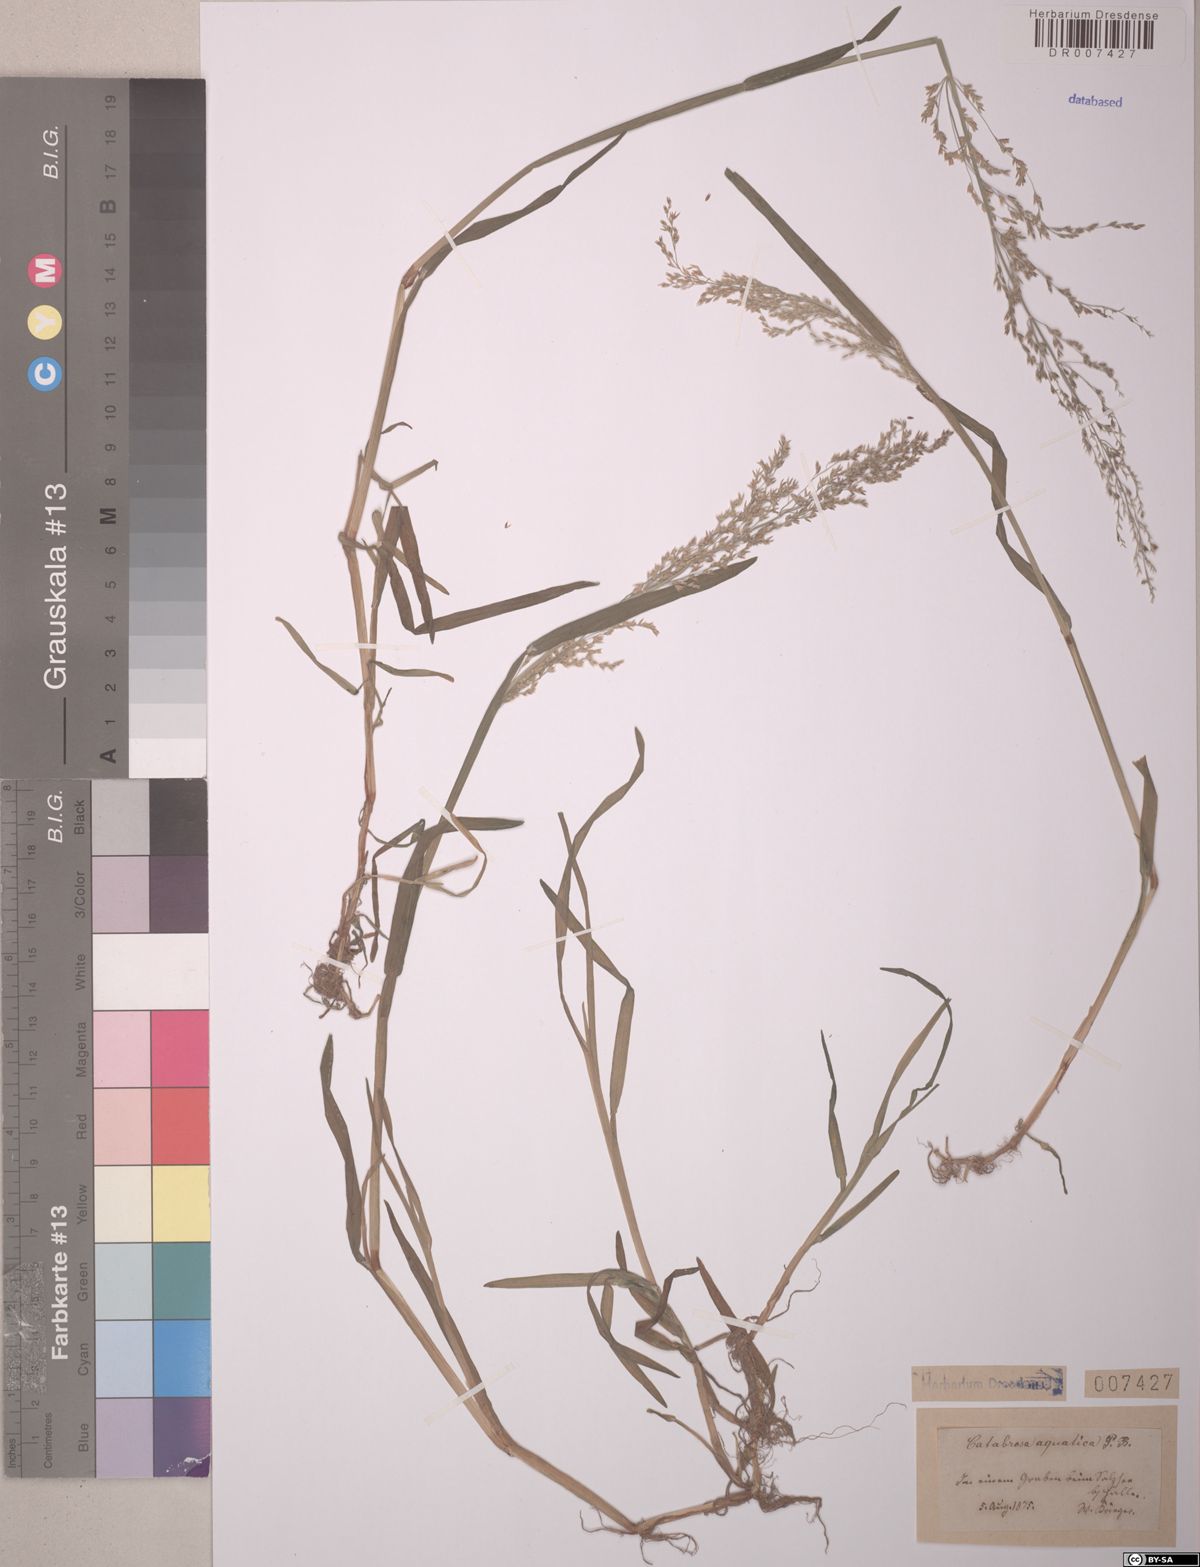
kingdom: Plantae
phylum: Tracheophyta
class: Liliopsida
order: Poales
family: Poaceae
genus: Catabrosa
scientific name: Catabrosa aquatica
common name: Whorl-grass
